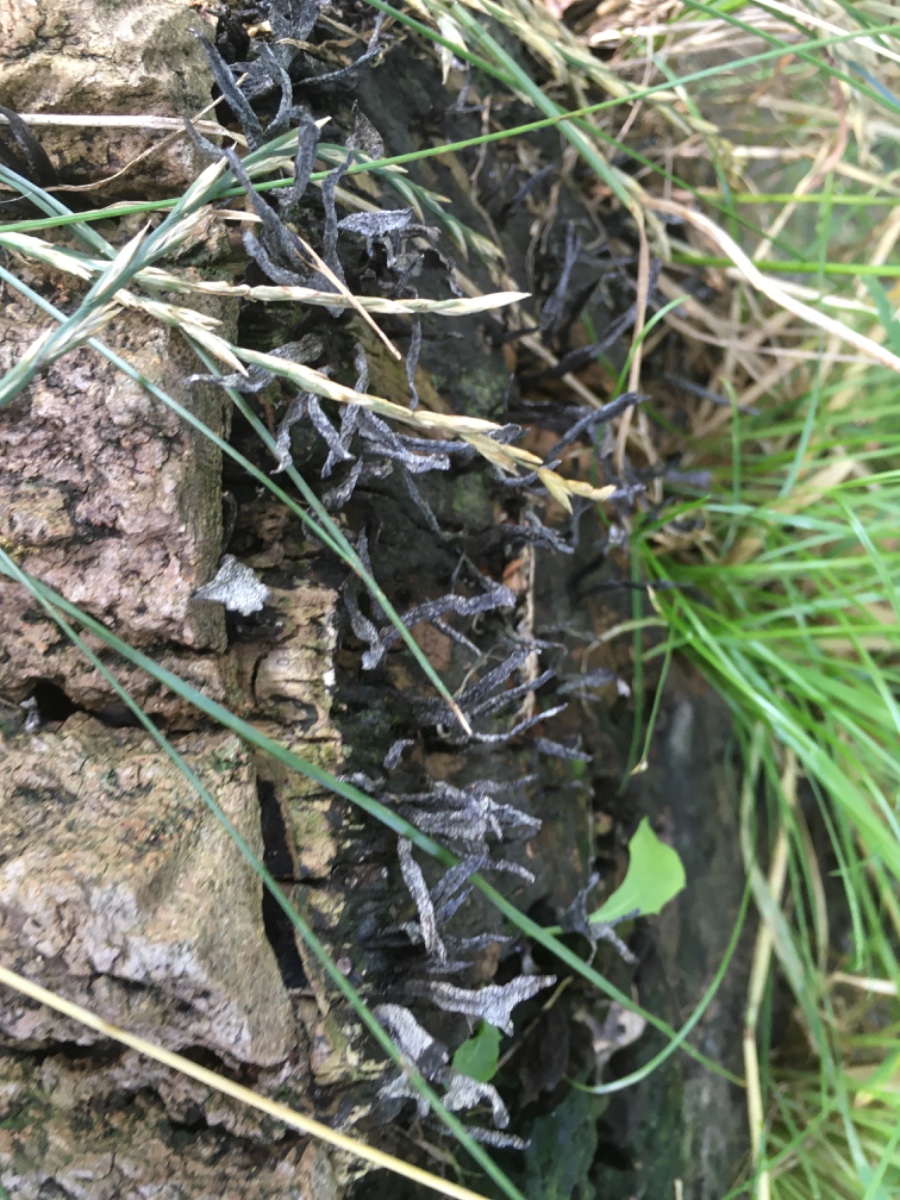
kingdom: Fungi
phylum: Ascomycota
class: Sordariomycetes
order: Xylariales
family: Xylariaceae
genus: Xylaria
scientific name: Xylaria hypoxylon
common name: grenet stødsvamp
